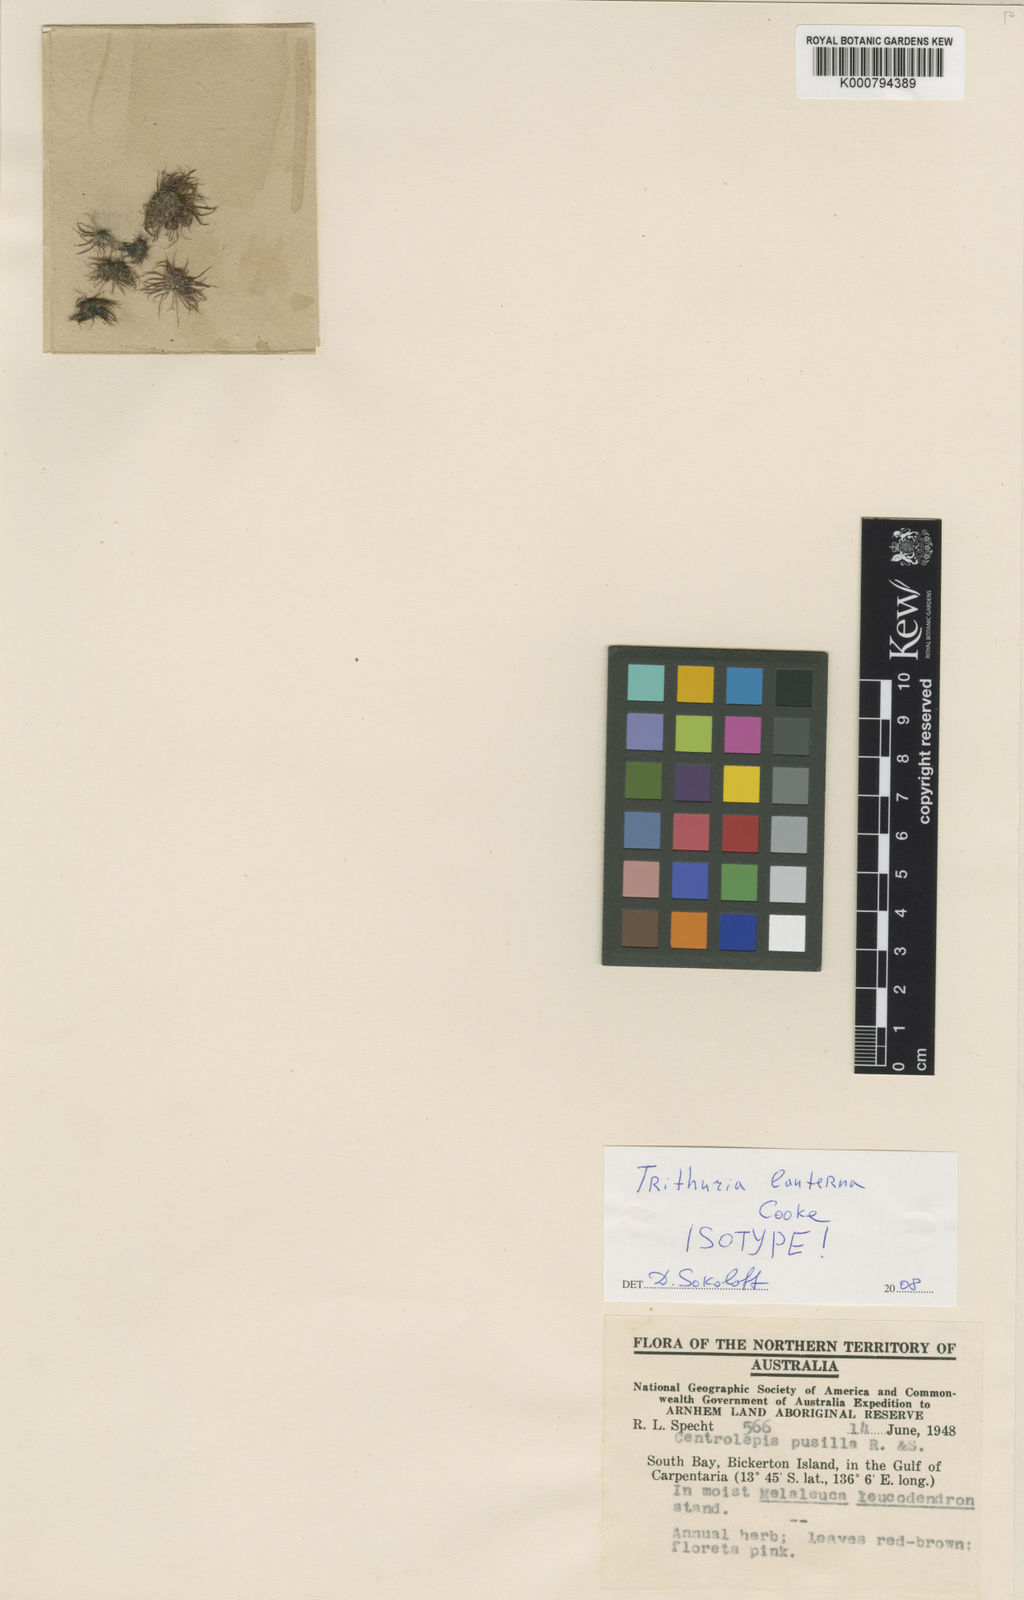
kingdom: Plantae
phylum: Tracheophyta
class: Magnoliopsida
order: Nymphaeales
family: Hydatellaceae
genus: Trithuria
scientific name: Trithuria lanterna
